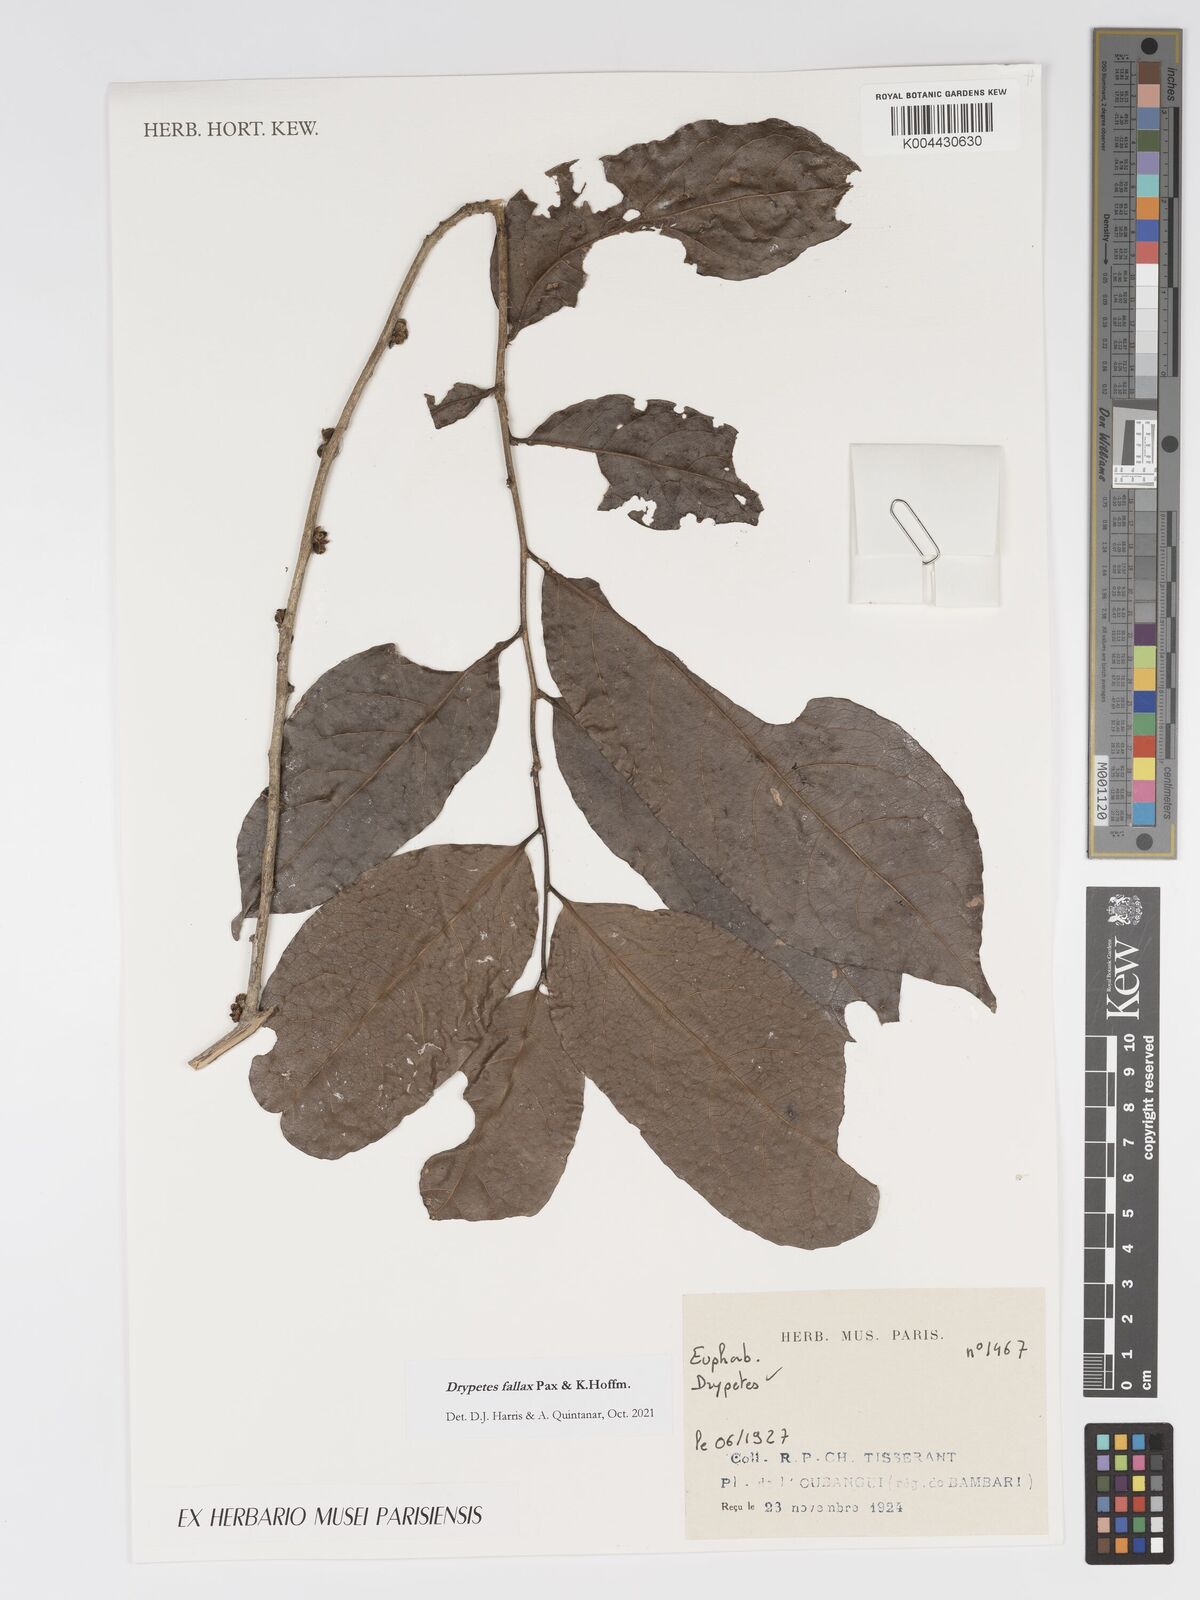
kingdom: Plantae
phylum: Tracheophyta
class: Magnoliopsida
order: Malpighiales
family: Putranjivaceae
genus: Drypetes
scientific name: Drypetes fallax
